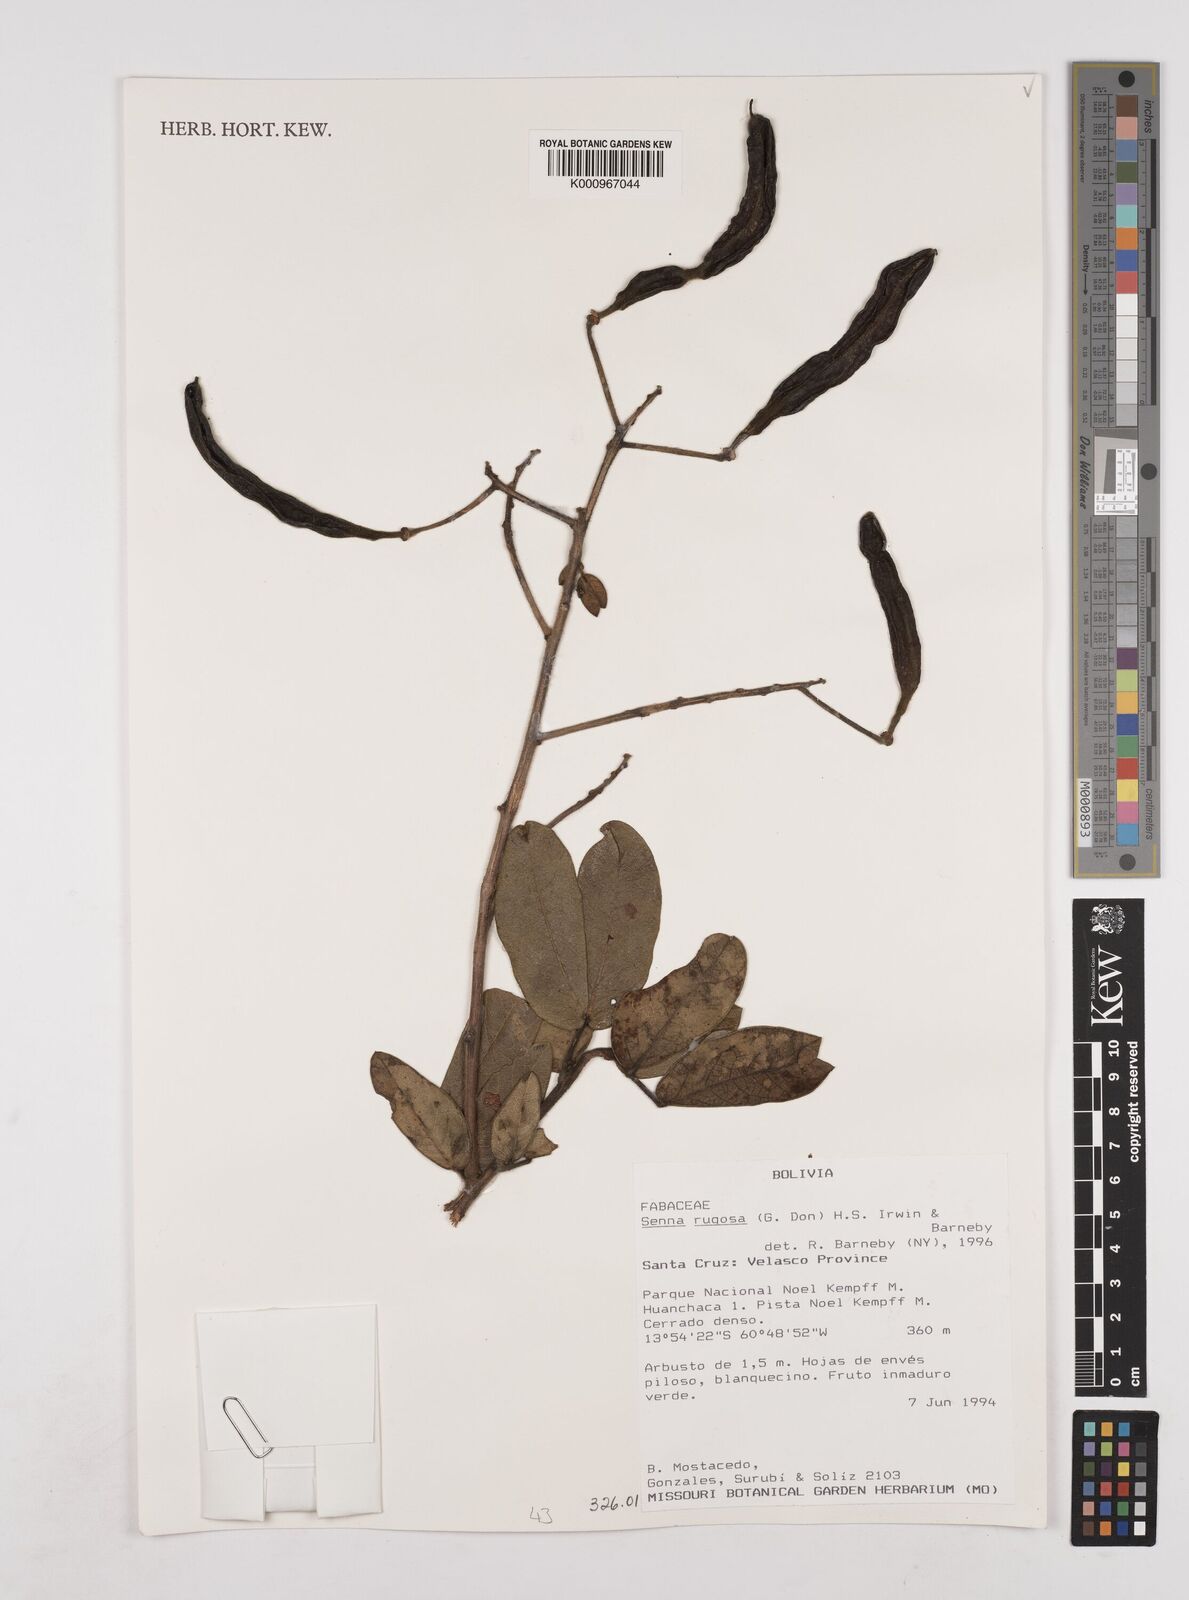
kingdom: Plantae
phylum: Tracheophyta
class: Magnoliopsida
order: Fabales
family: Fabaceae
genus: Senna
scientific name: Senna rugosa
